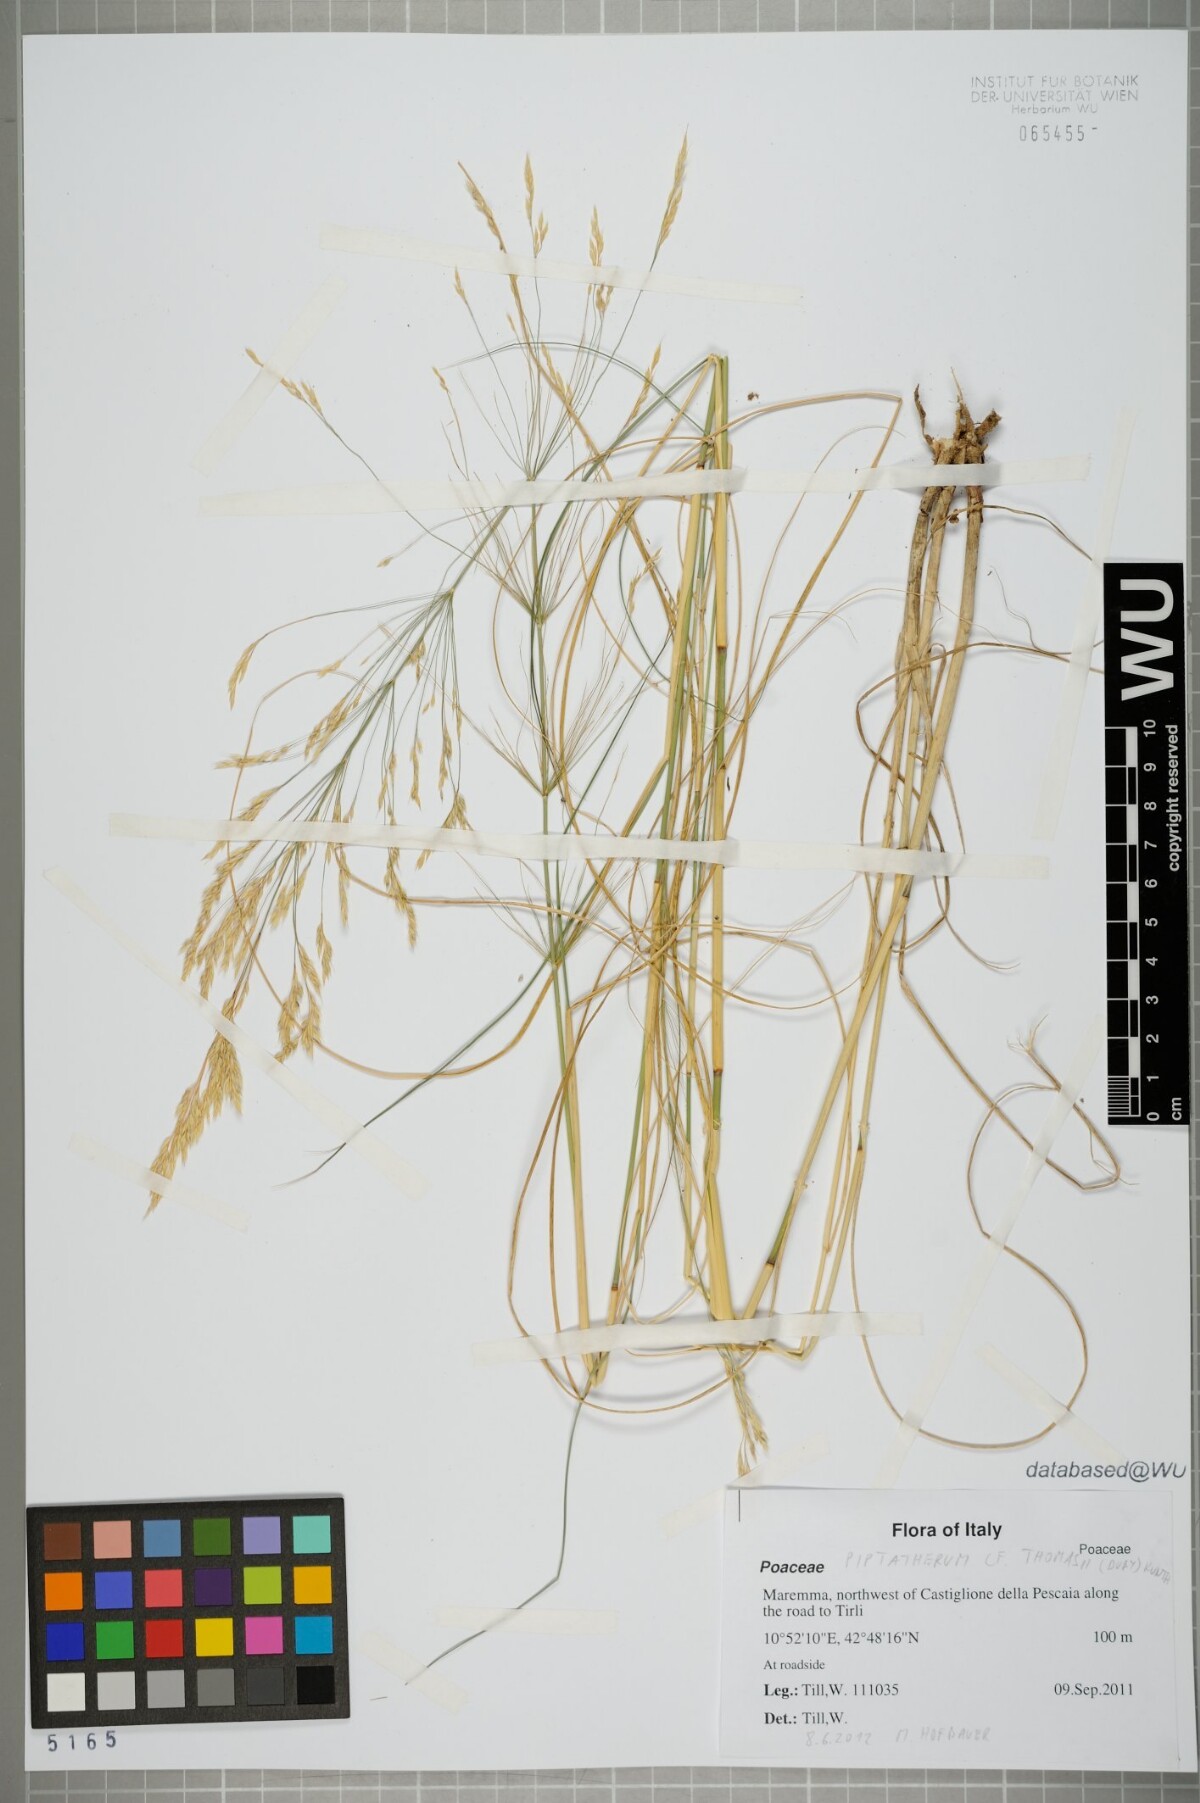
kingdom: Plantae
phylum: Tracheophyta
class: Liliopsida
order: Poales
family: Poaceae
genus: Oloptum
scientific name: Oloptum thomasii
